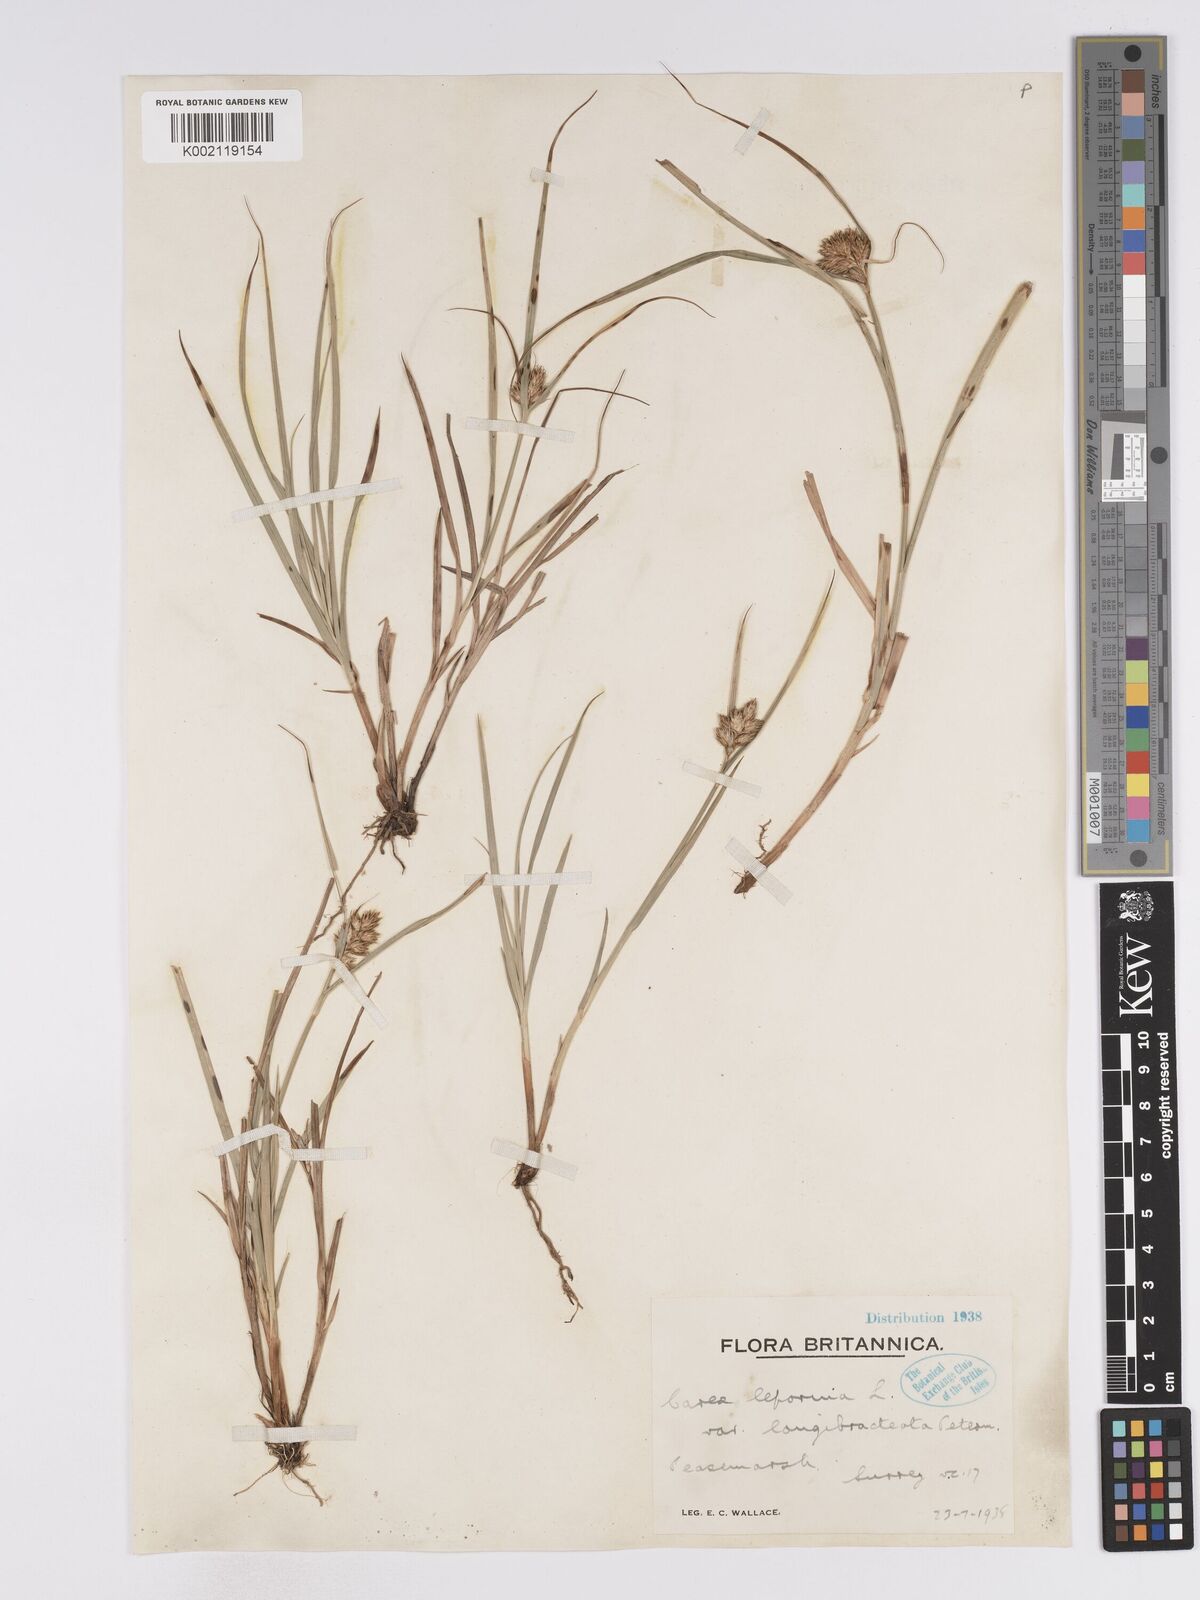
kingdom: Plantae
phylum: Tracheophyta
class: Liliopsida
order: Poales
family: Cyperaceae
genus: Carex
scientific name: Carex leporina
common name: Oval sedge
